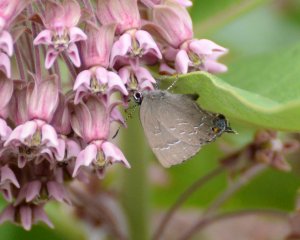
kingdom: Animalia
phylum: Arthropoda
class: Insecta
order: Lepidoptera
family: Lycaenidae
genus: Satyrium
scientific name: Satyrium calanus
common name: Banded Hairstreak
